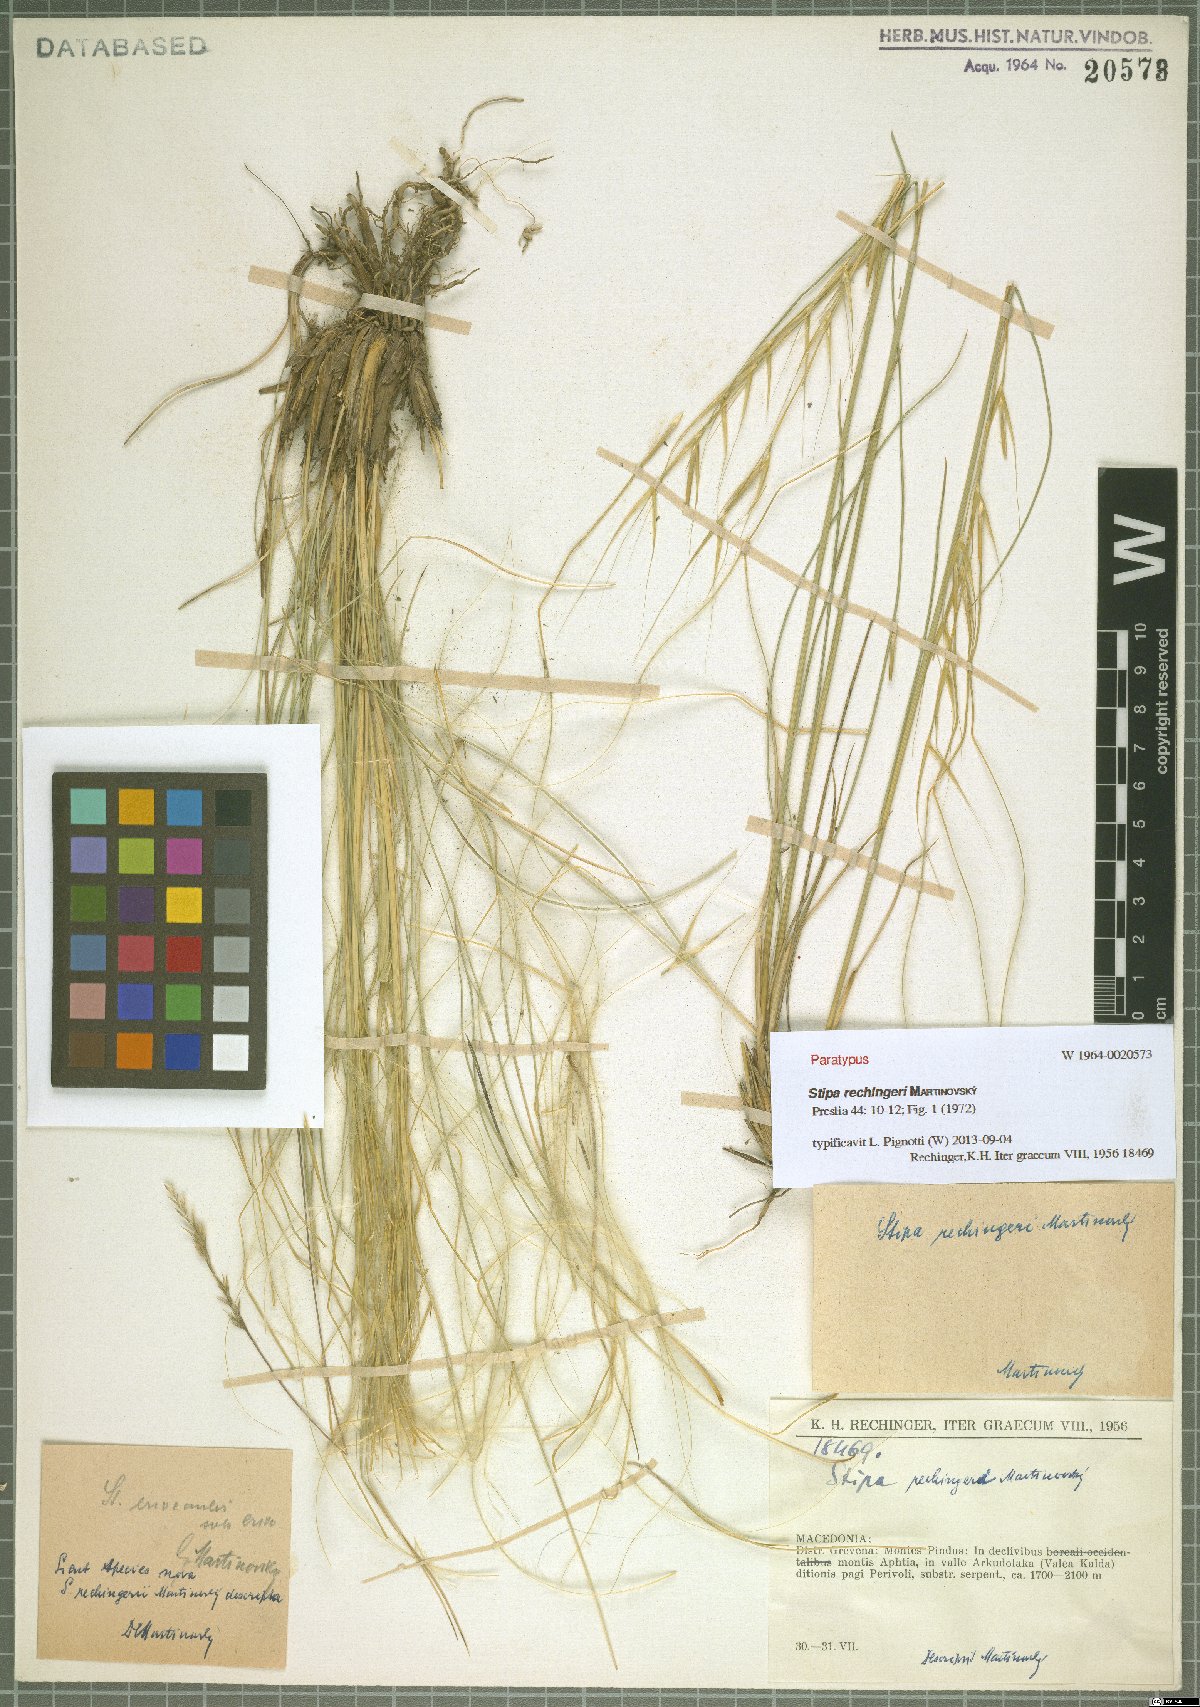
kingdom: Plantae
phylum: Tracheophyta
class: Liliopsida
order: Poales
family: Poaceae
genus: Stipa
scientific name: Stipa rechingeri
